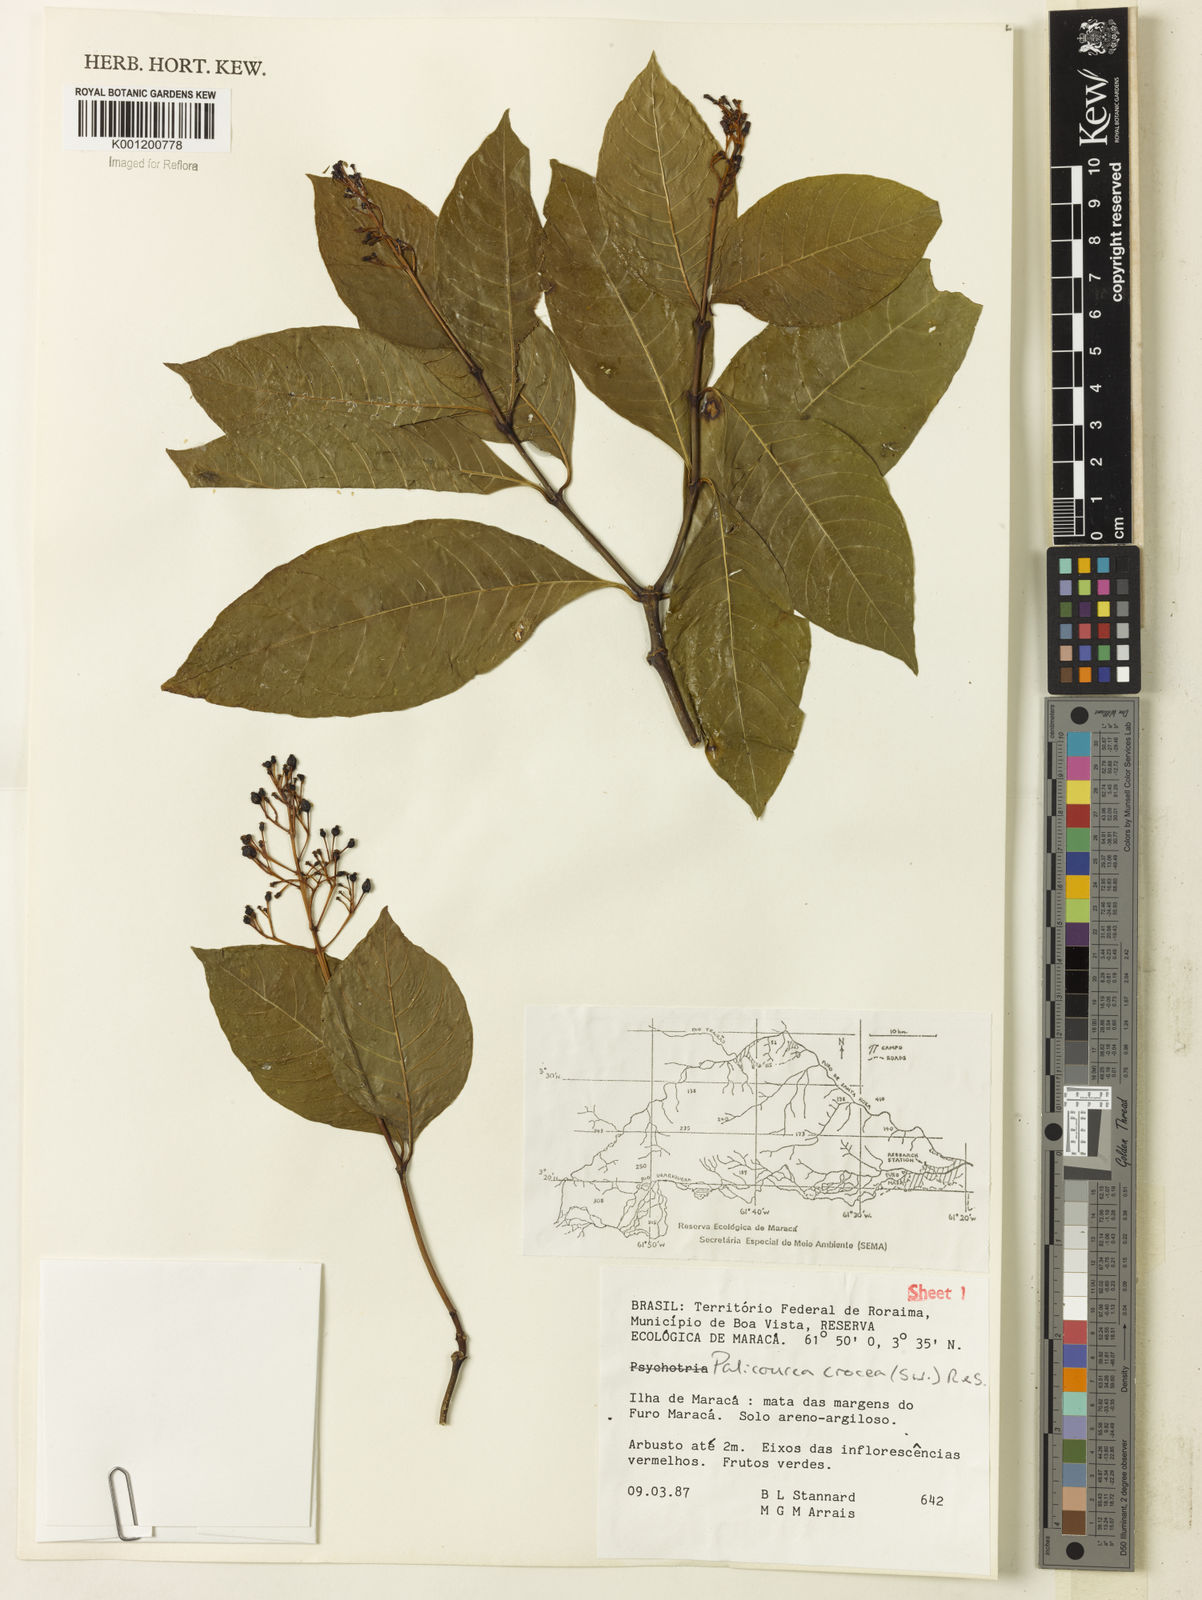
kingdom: Plantae
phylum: Tracheophyta
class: Magnoliopsida
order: Gentianales
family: Rubiaceae
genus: Palicourea
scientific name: Palicourea crocea
